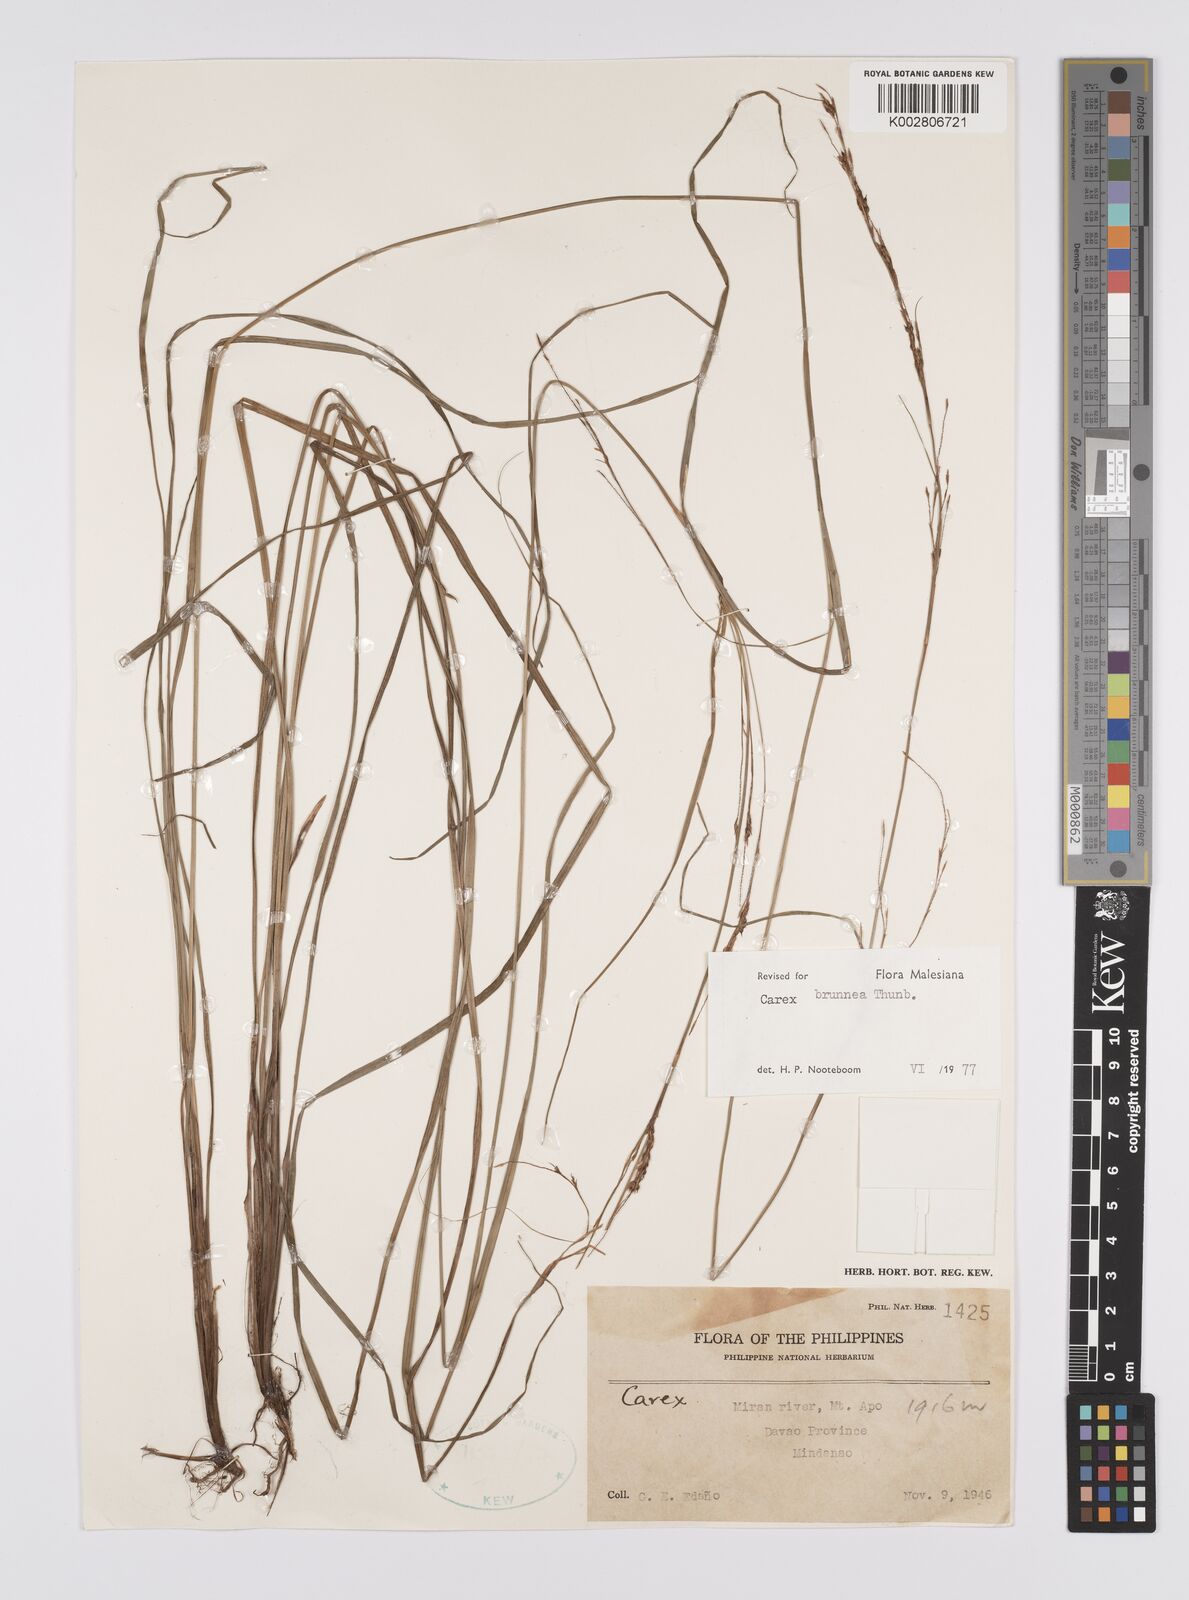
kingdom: Plantae
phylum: Tracheophyta
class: Liliopsida
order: Poales
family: Cyperaceae
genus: Carex
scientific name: Carex brunnea
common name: Greater brown sedge
